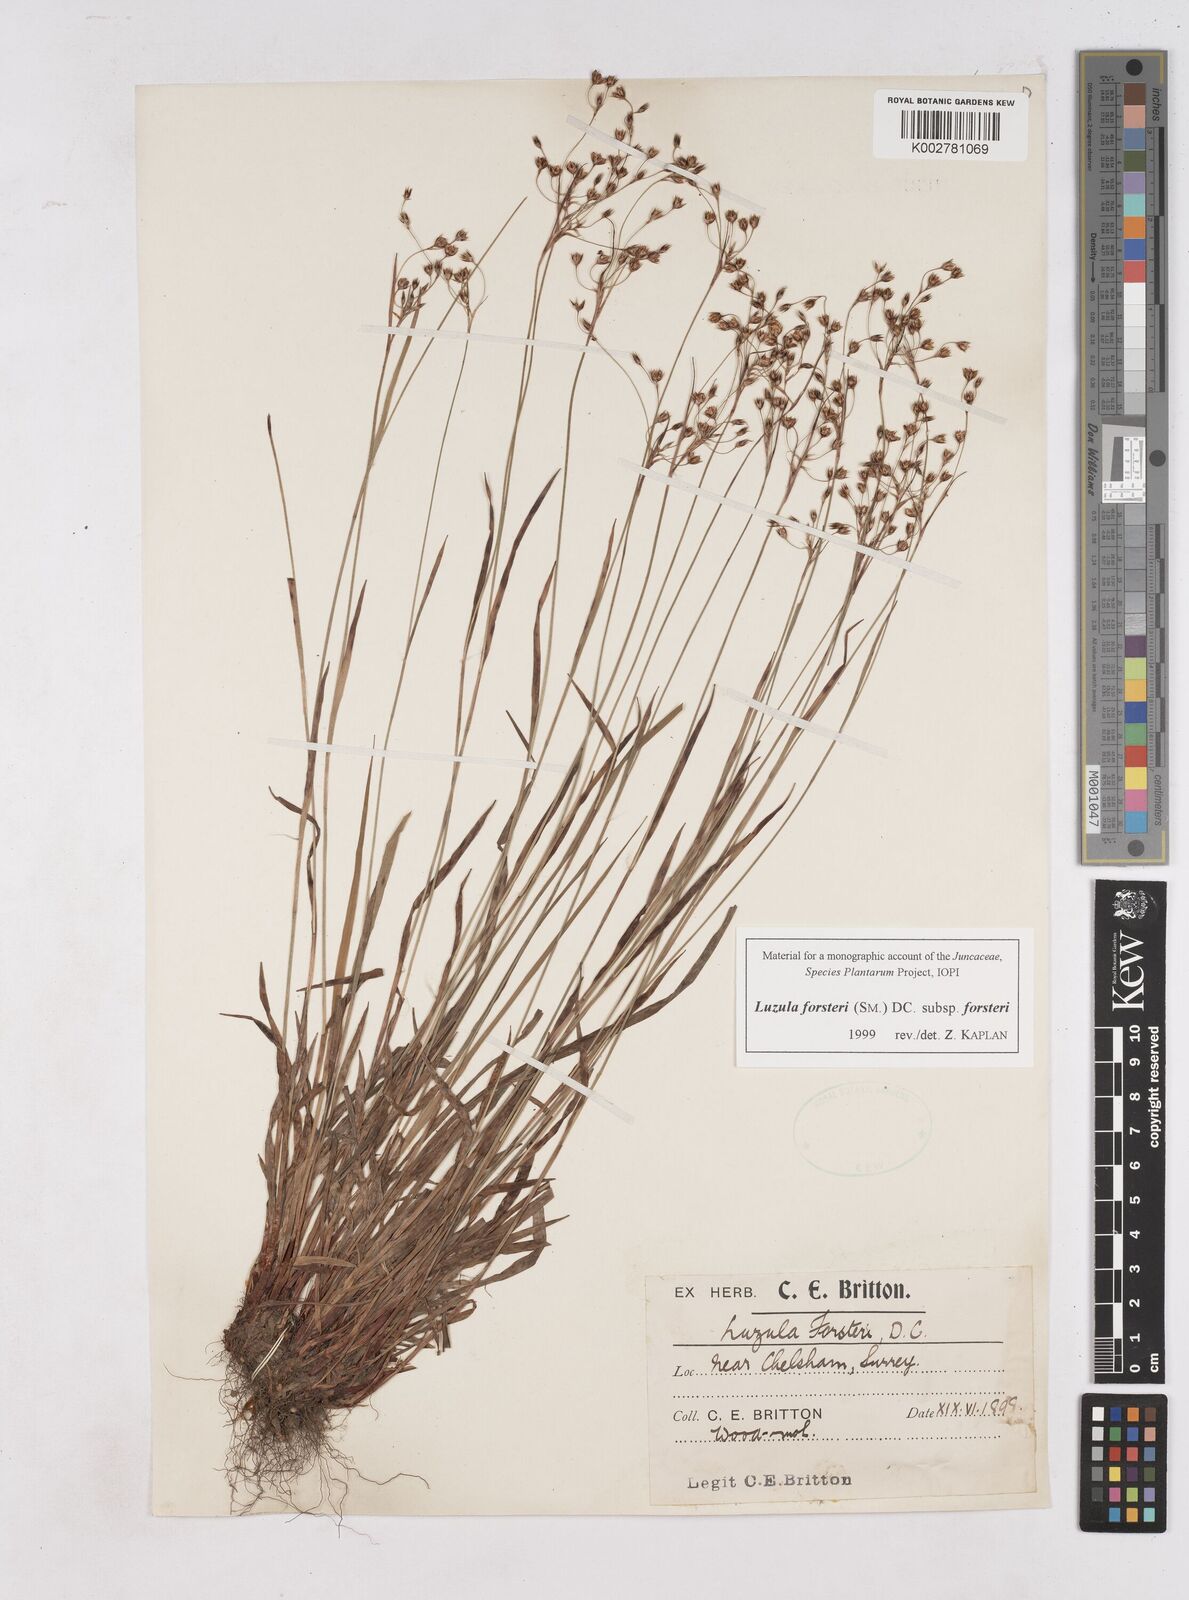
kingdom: Plantae
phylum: Tracheophyta
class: Liliopsida
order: Poales
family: Juncaceae
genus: Luzula
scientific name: Luzula forsteri
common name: Southern wood-rush
